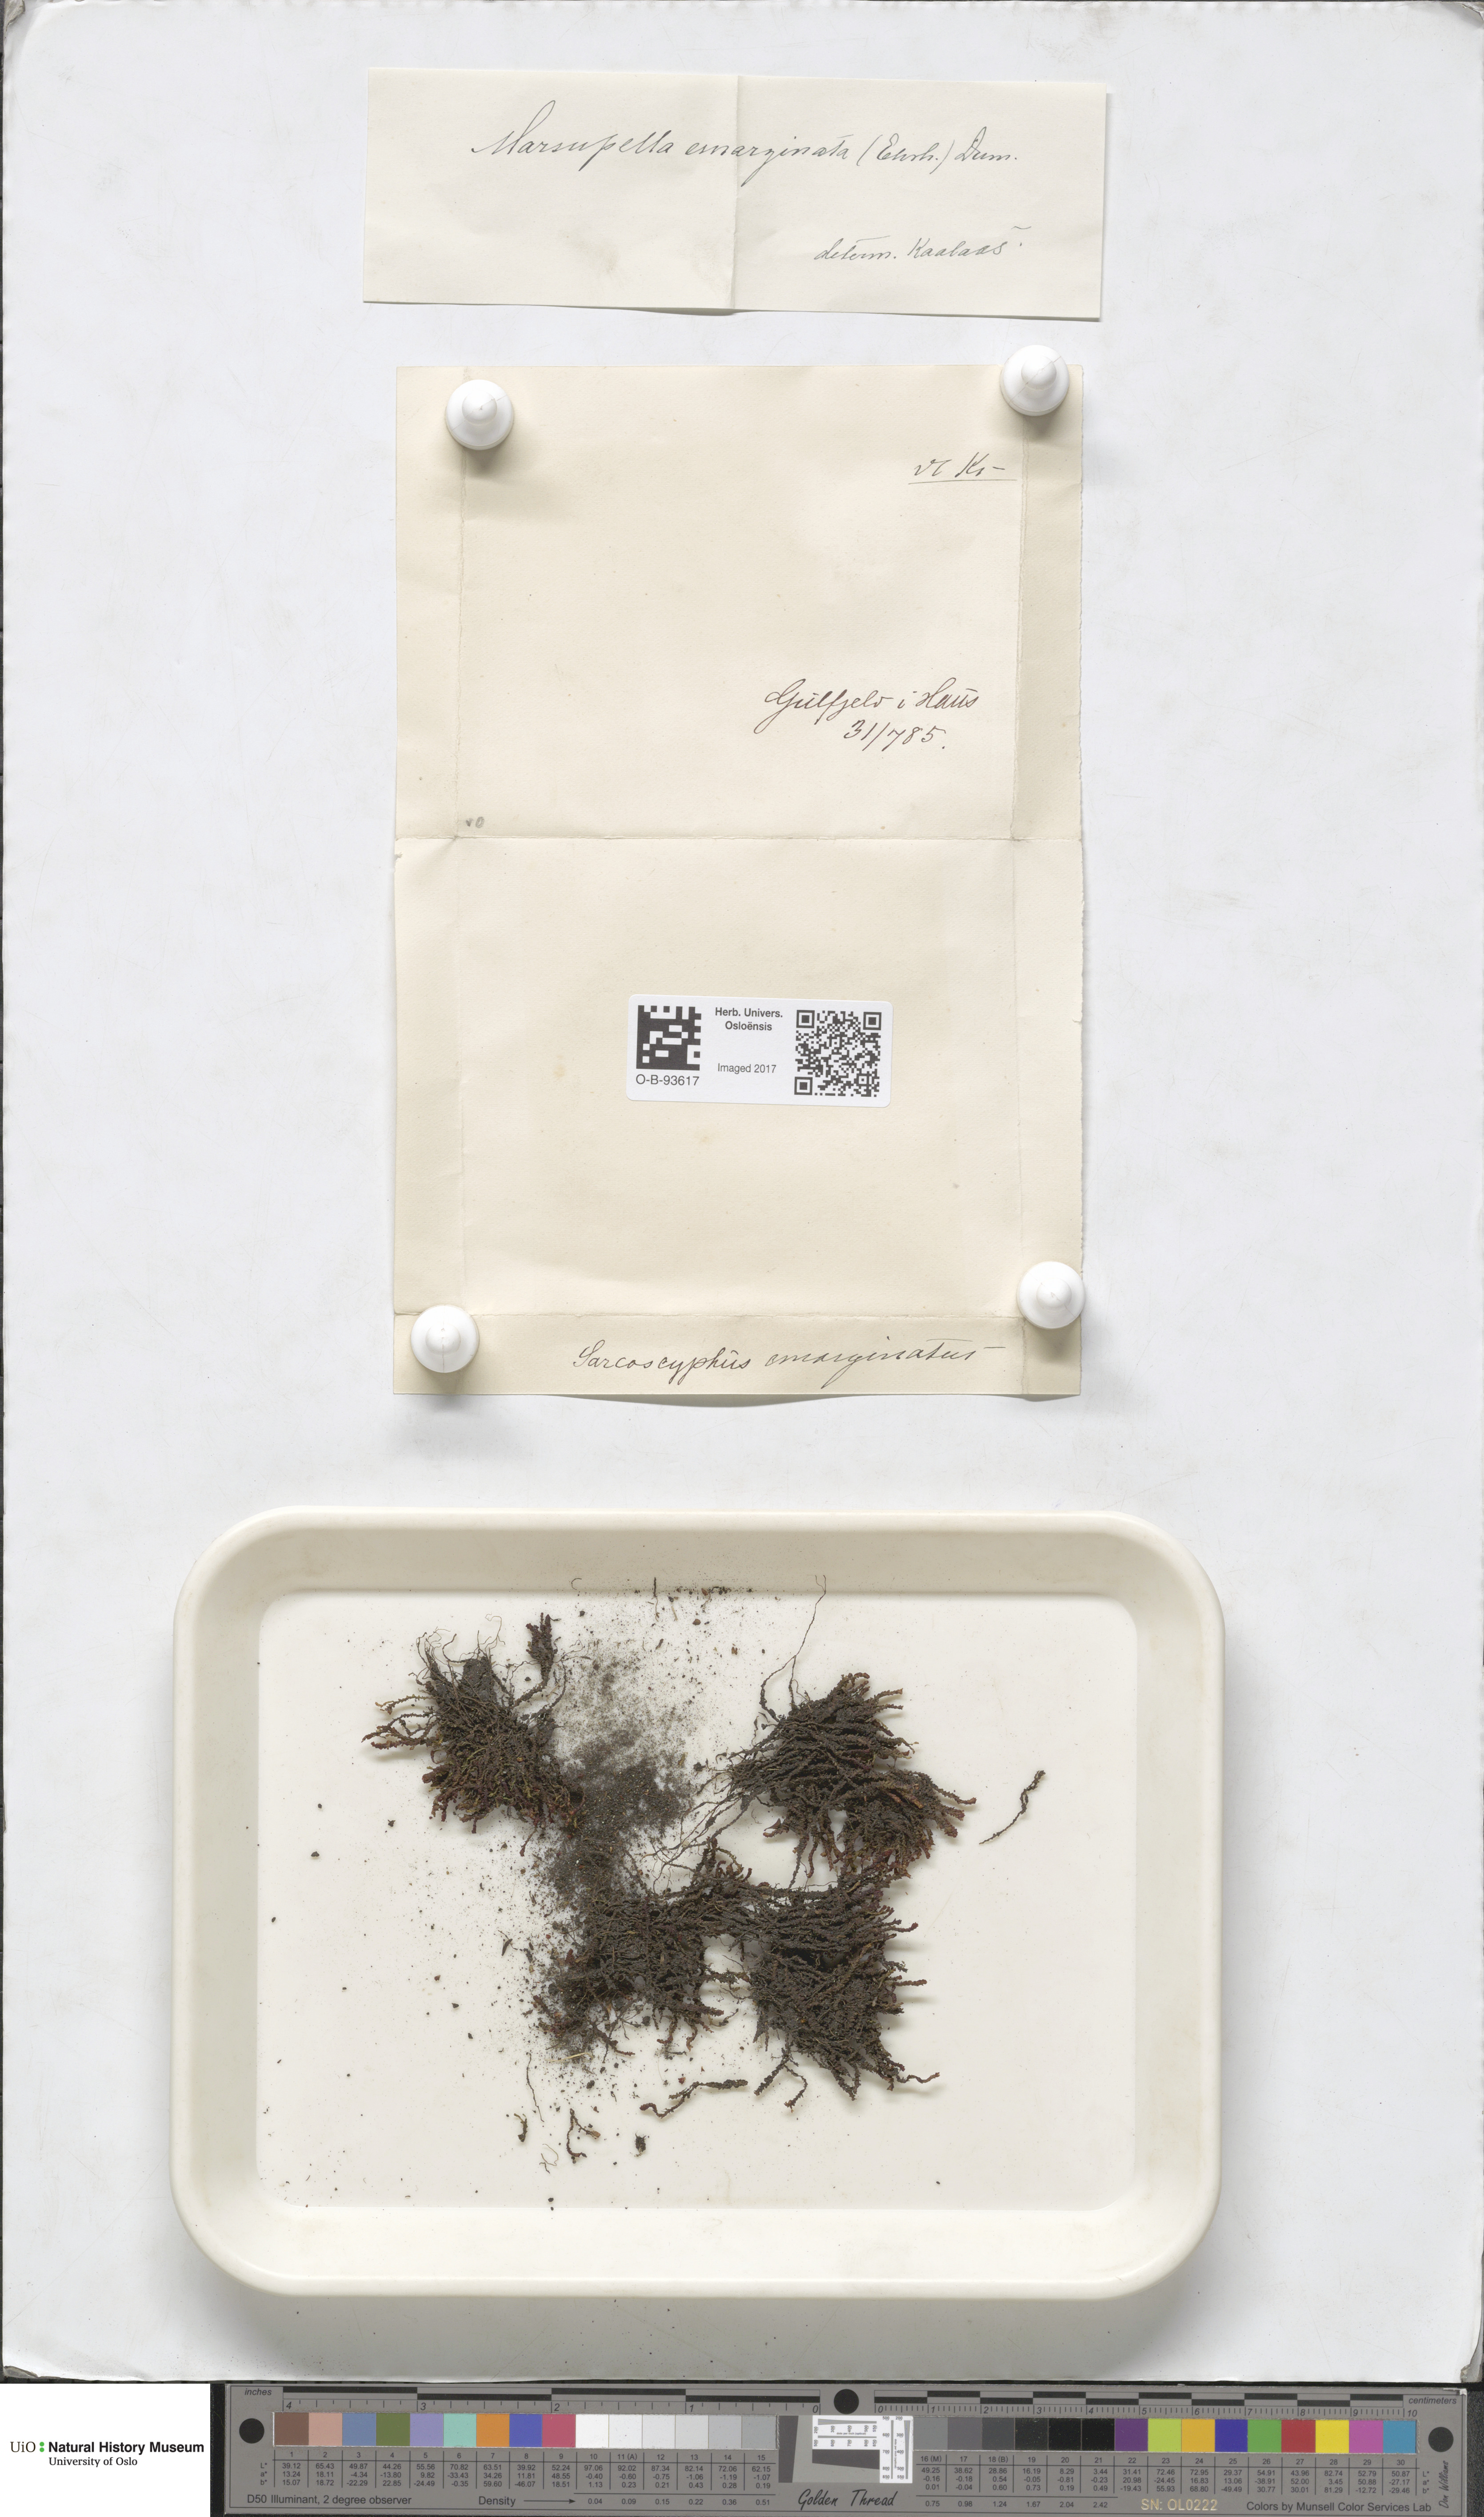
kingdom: Plantae
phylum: Marchantiophyta
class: Jungermanniopsida
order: Jungermanniales
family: Gymnomitriaceae
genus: Marsupella
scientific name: Marsupella emarginata
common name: Notched rustwort
